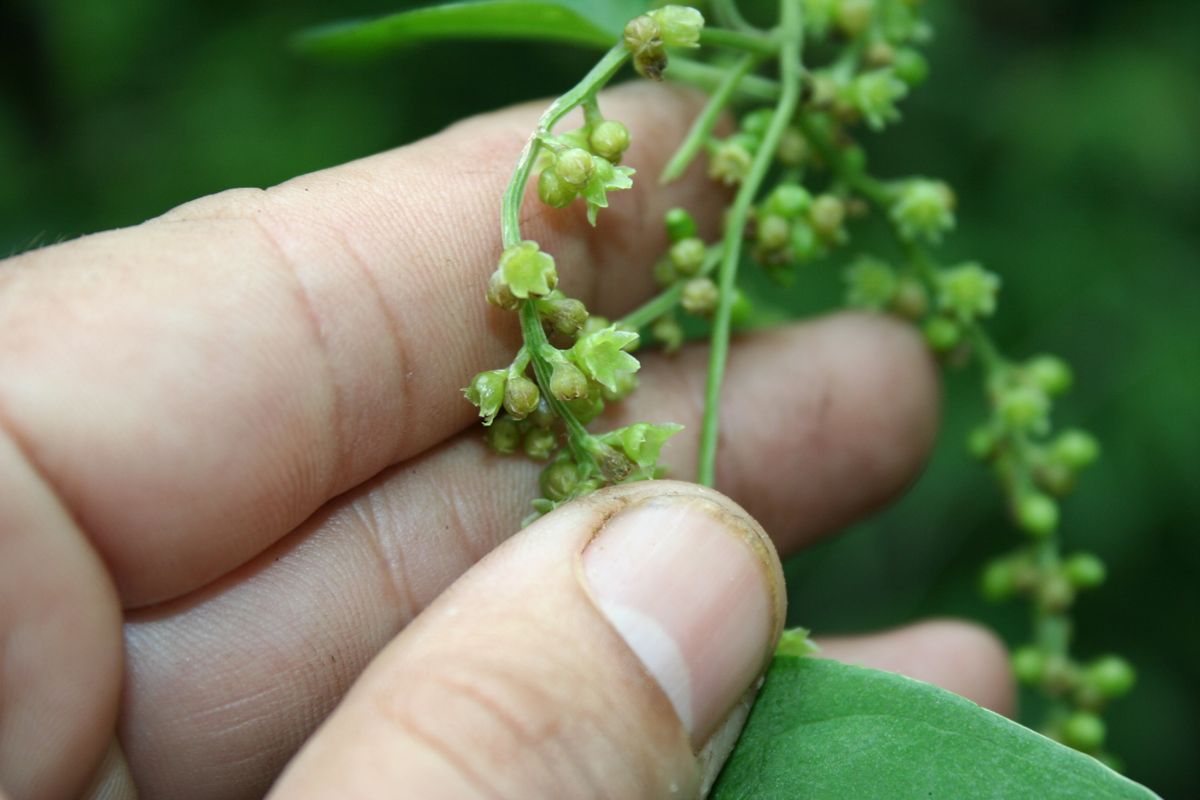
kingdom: Plantae
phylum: Tracheophyta
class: Liliopsida
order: Dioscoreales
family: Dioscoreaceae
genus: Dioscorea
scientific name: Dioscorea
